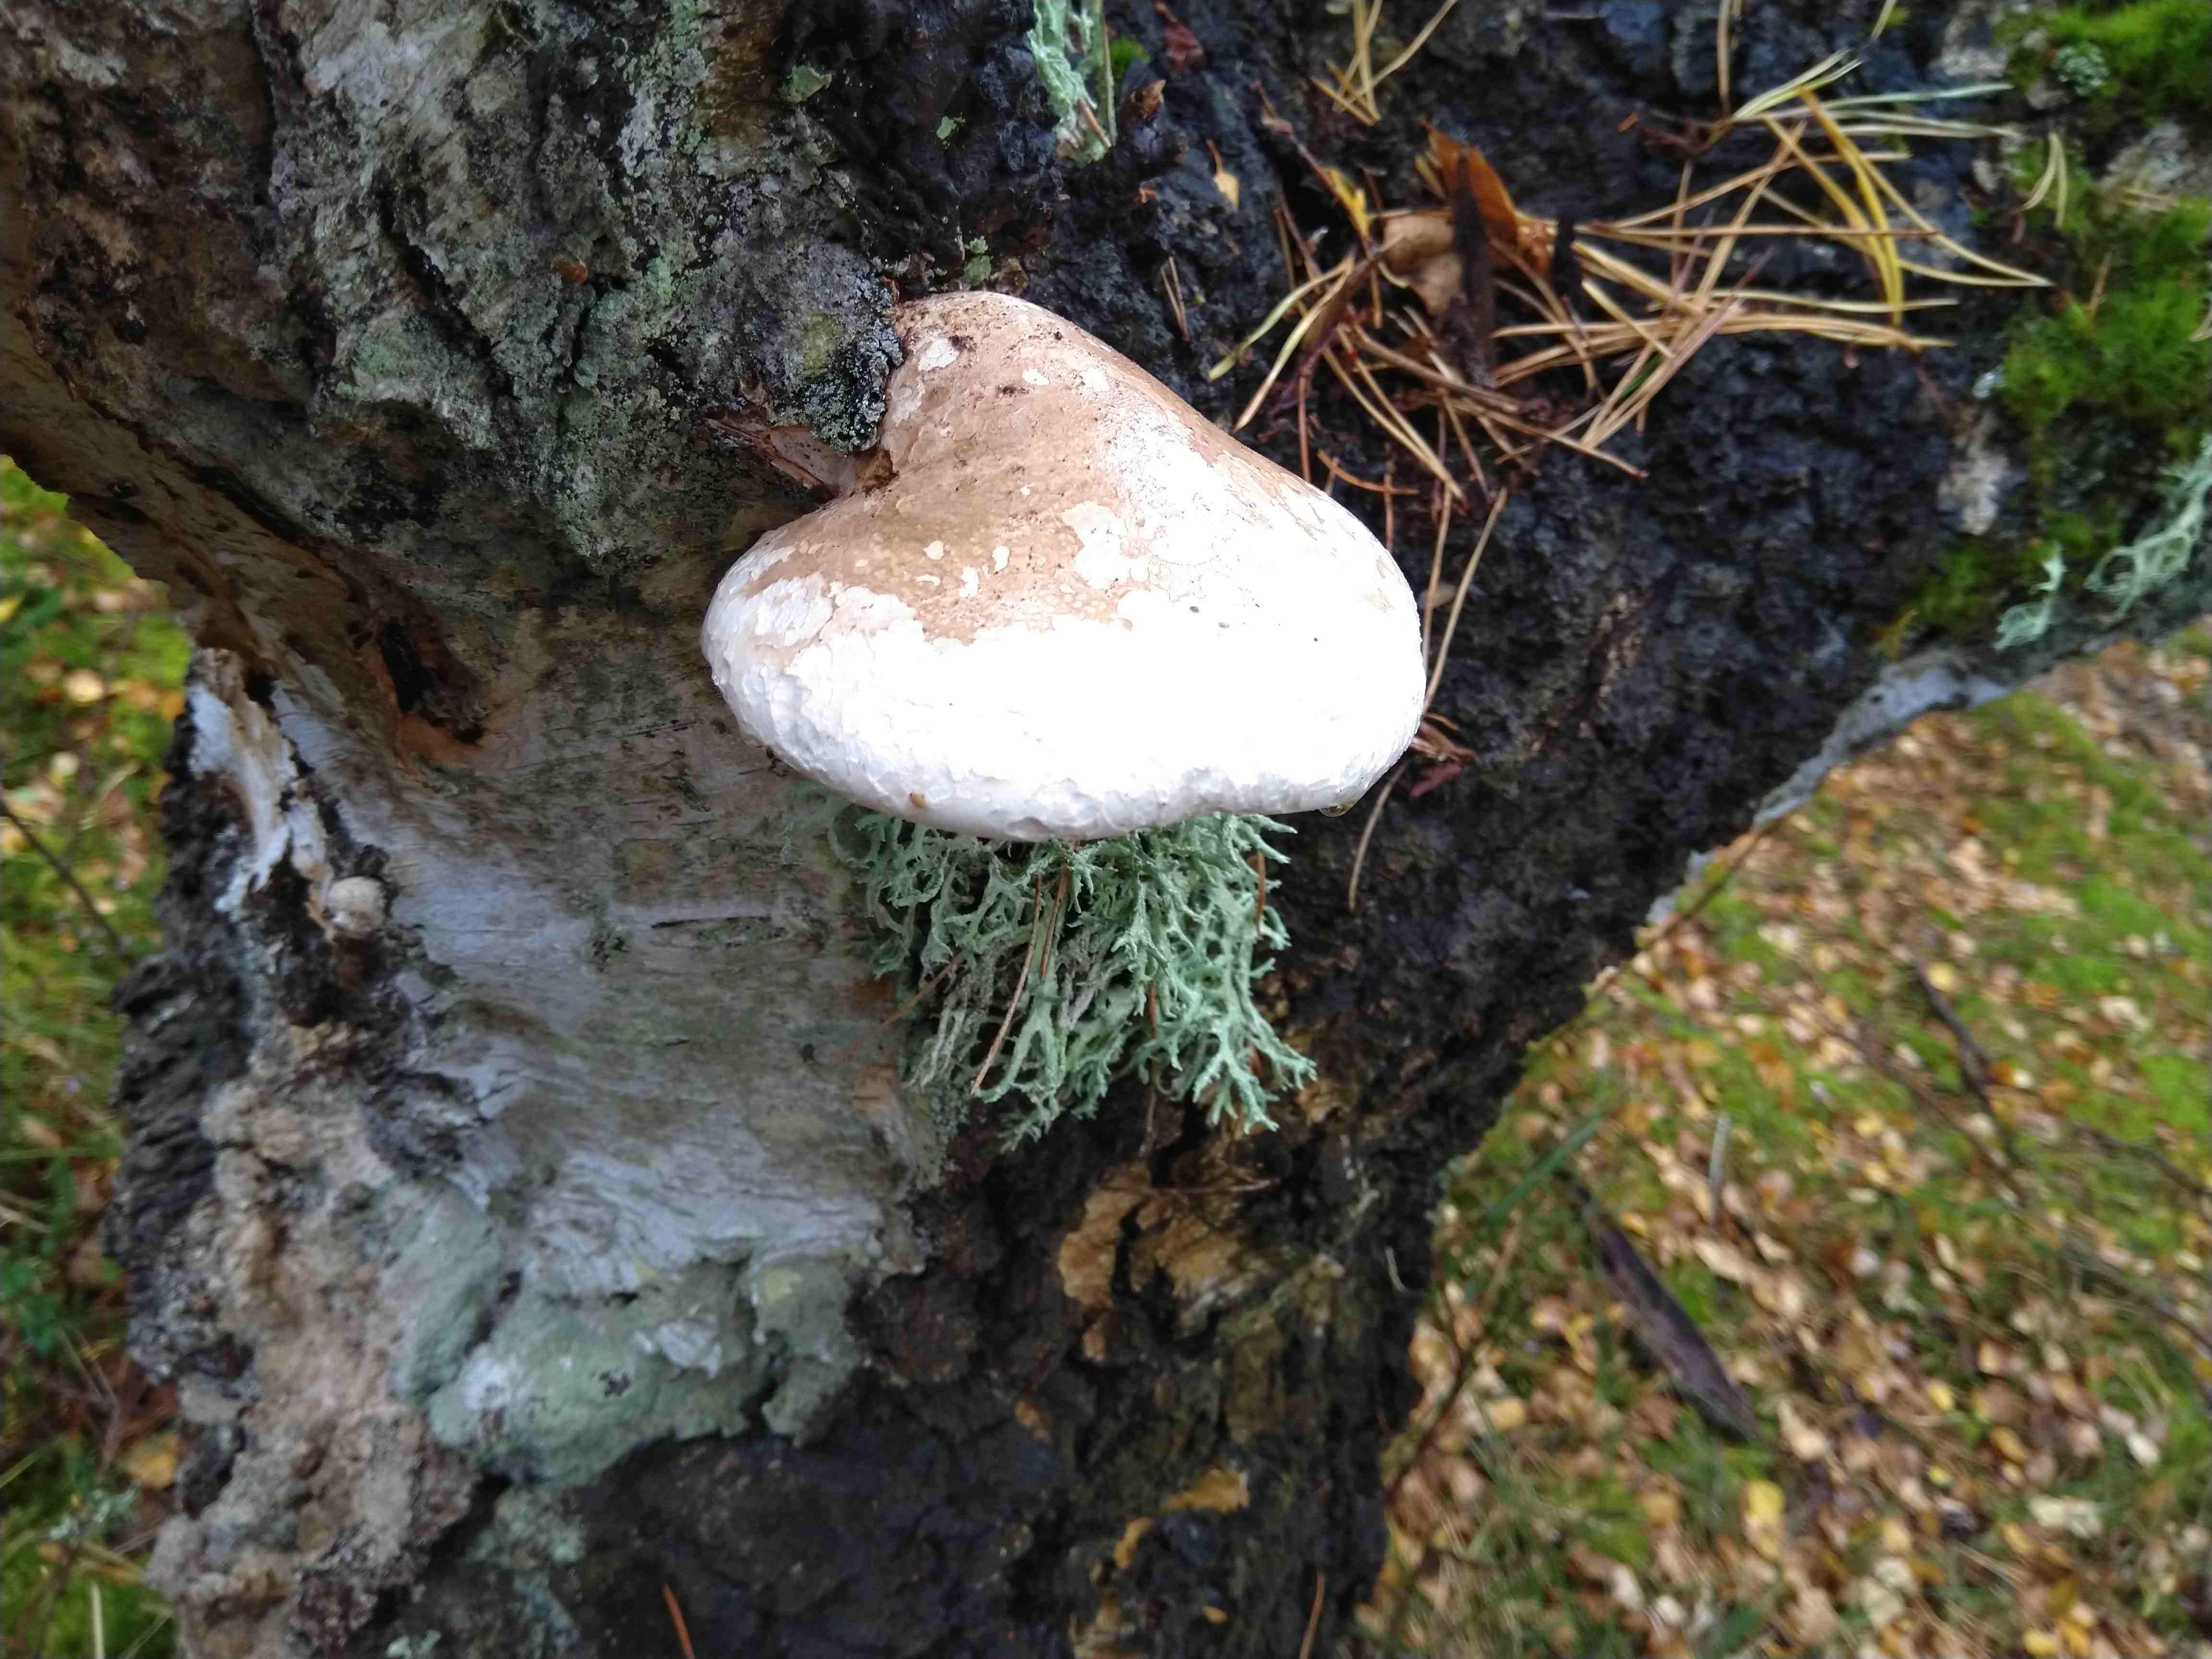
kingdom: Fungi
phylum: Basidiomycota
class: Agaricomycetes
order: Polyporales
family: Fomitopsidaceae
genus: Fomitopsis
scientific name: Fomitopsis betulina
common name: birkeporesvamp
